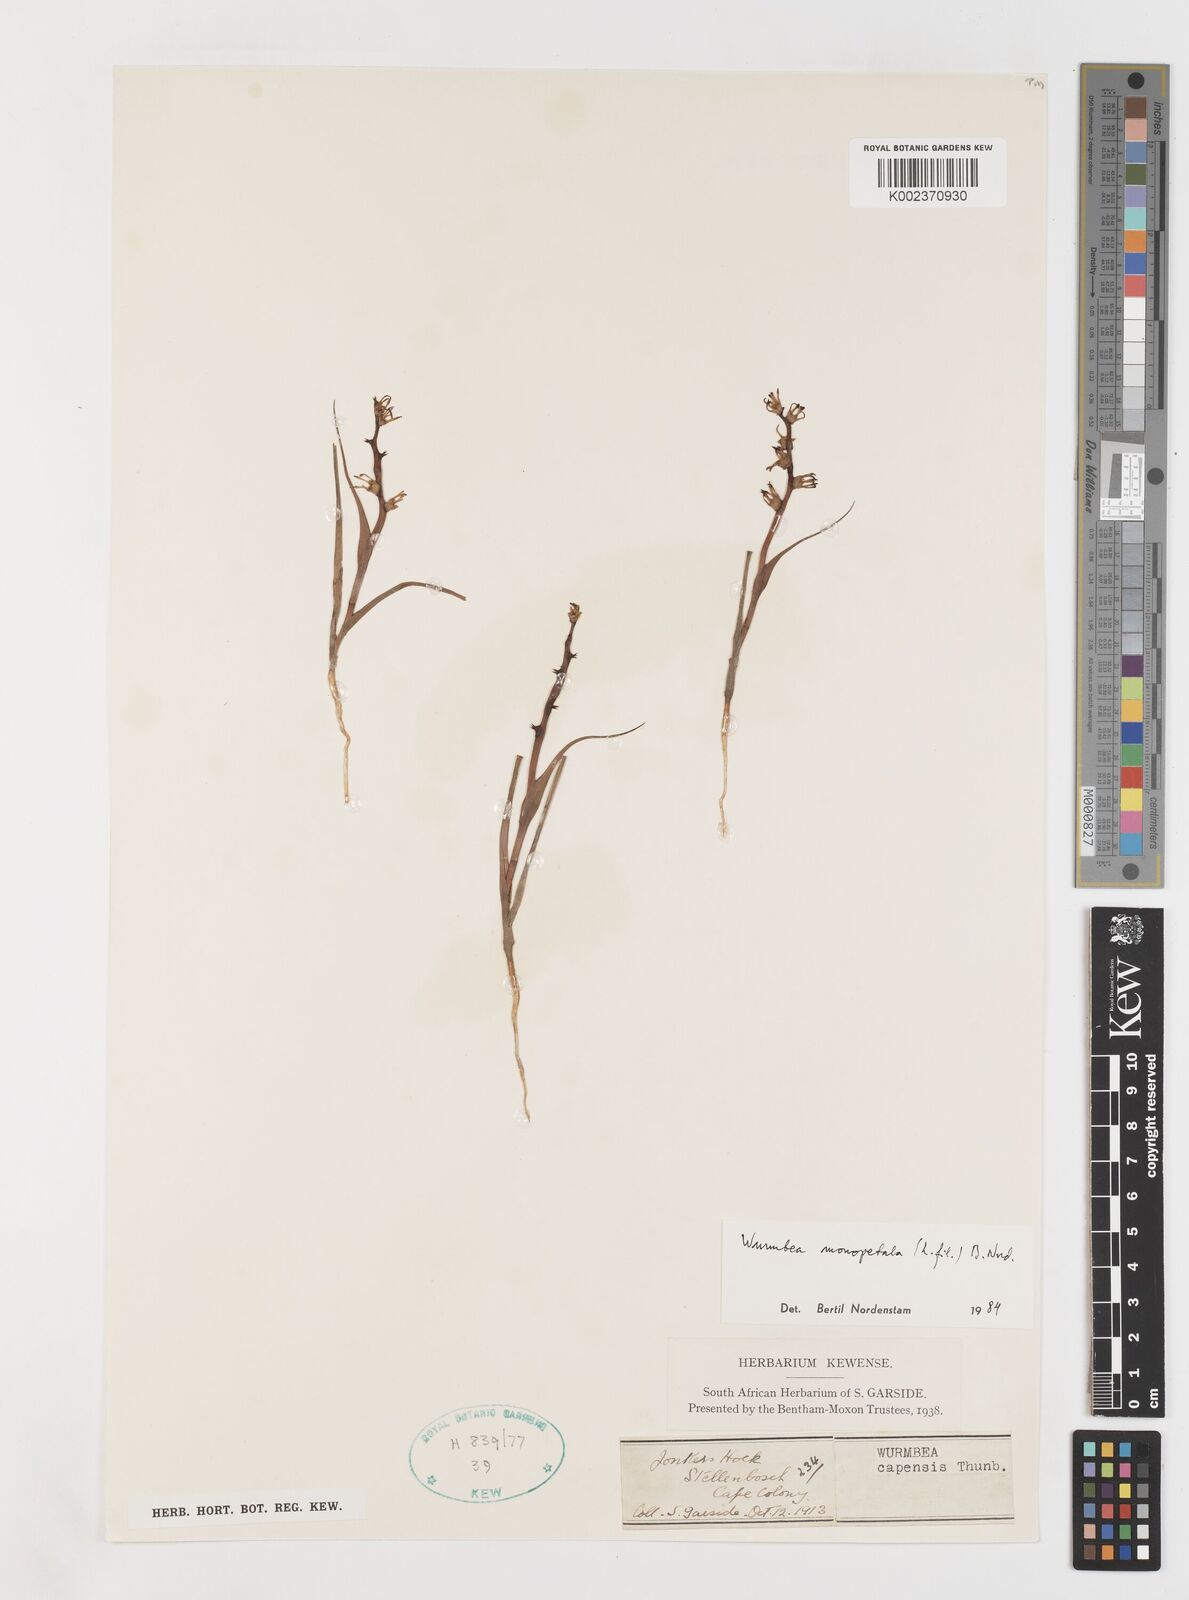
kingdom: Plantae
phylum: Tracheophyta
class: Liliopsida
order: Liliales
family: Colchicaceae
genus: Wurmbea
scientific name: Wurmbea monopetala
